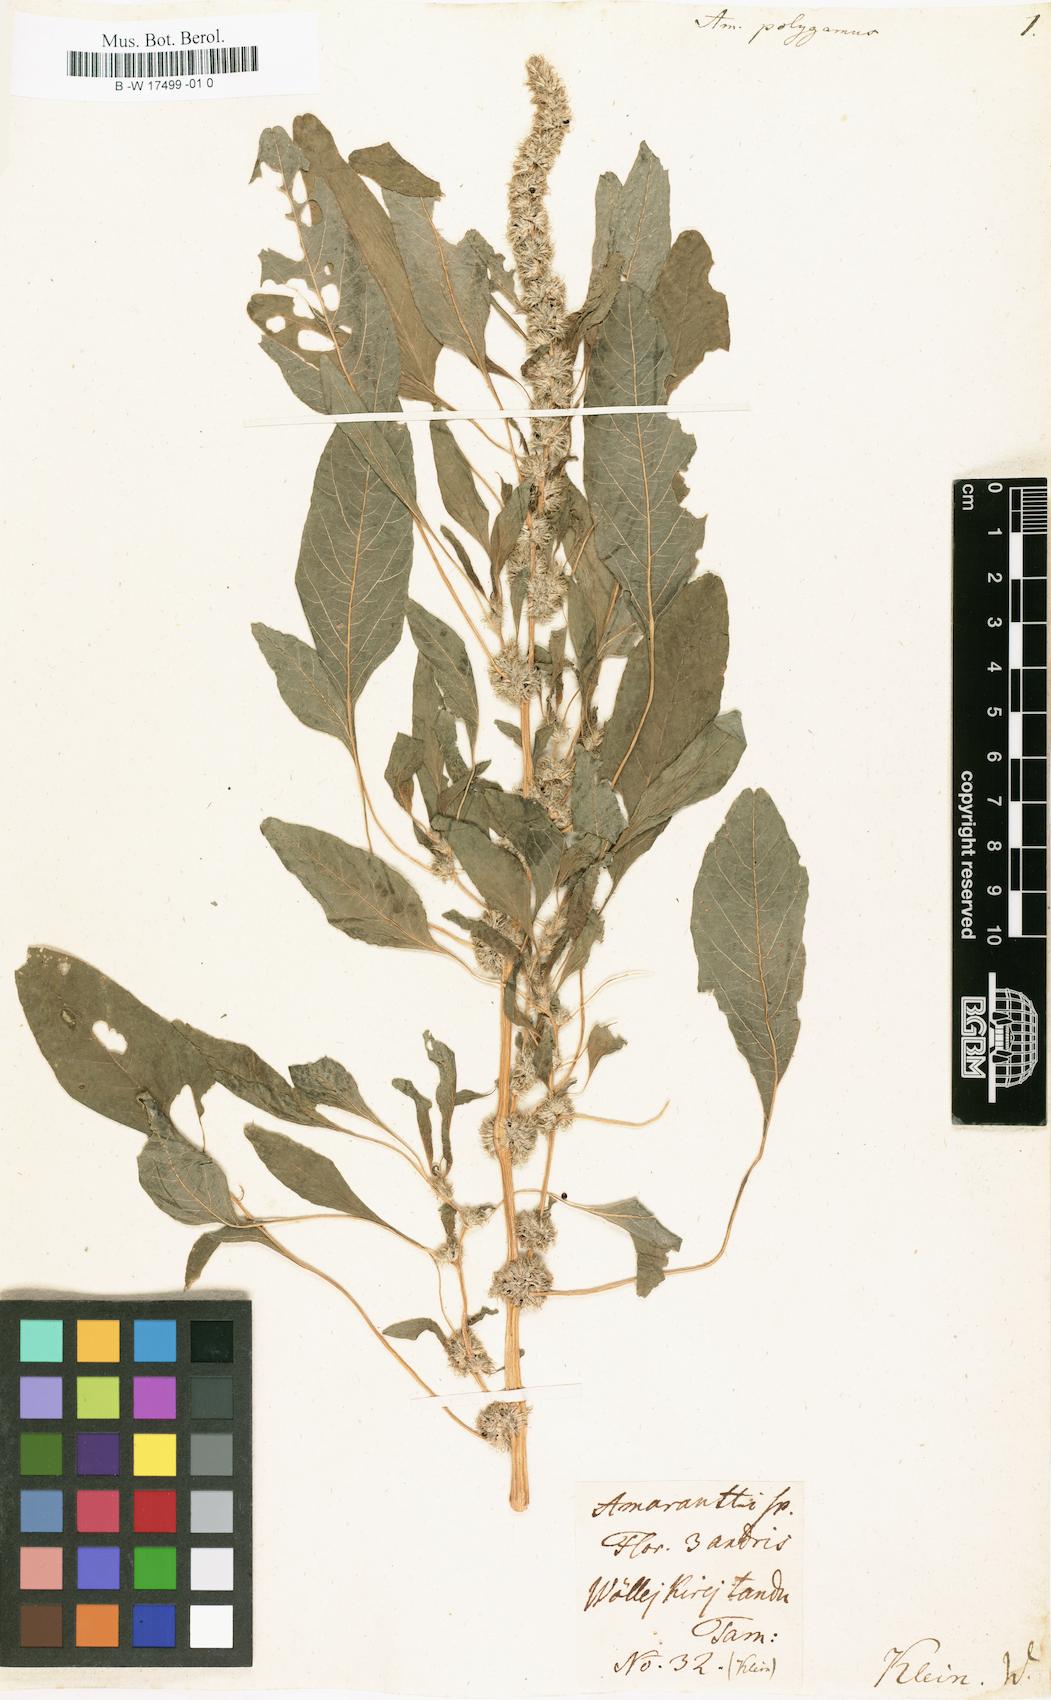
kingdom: Plantae
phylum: Tracheophyta
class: Magnoliopsida
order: Caryophyllales
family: Amaranthaceae
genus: Amaranthus
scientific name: Amaranthus tricolor
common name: Joseph's-coat
